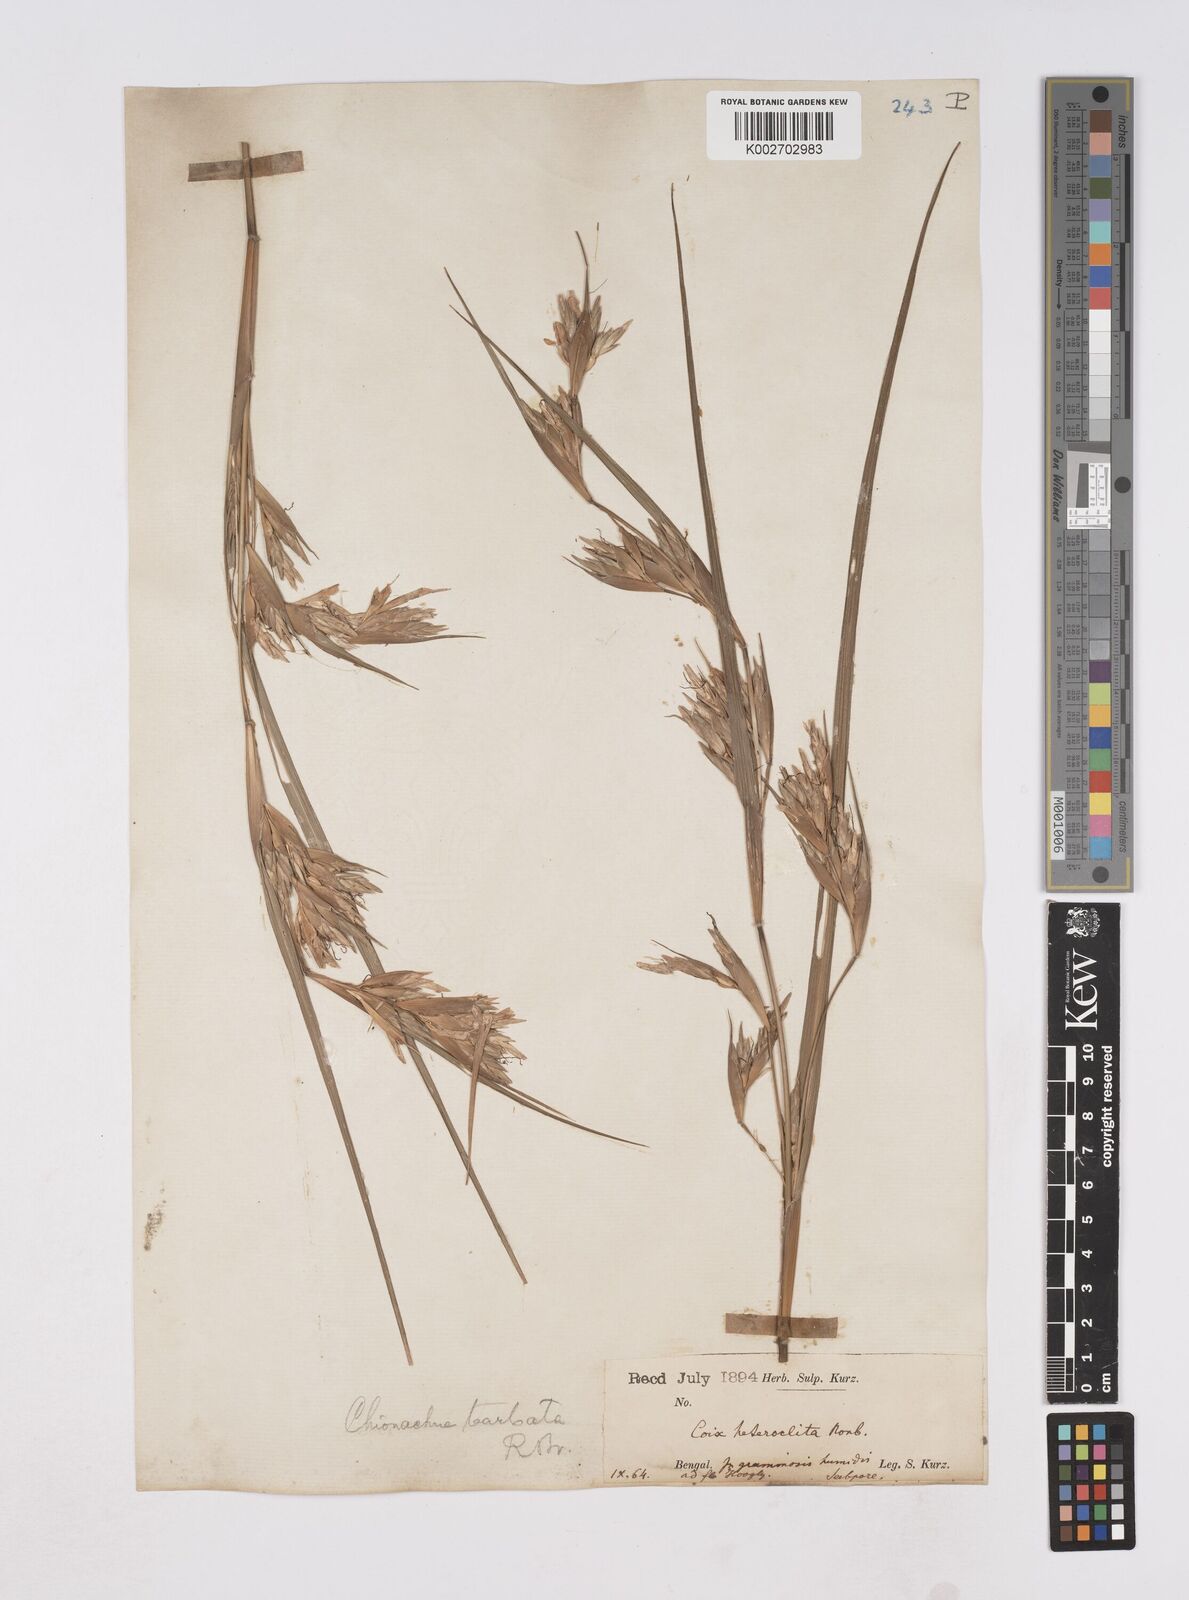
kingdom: Plantae
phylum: Tracheophyta
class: Liliopsida
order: Poales
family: Poaceae
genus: Polytoca
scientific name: Polytoca gigantea
